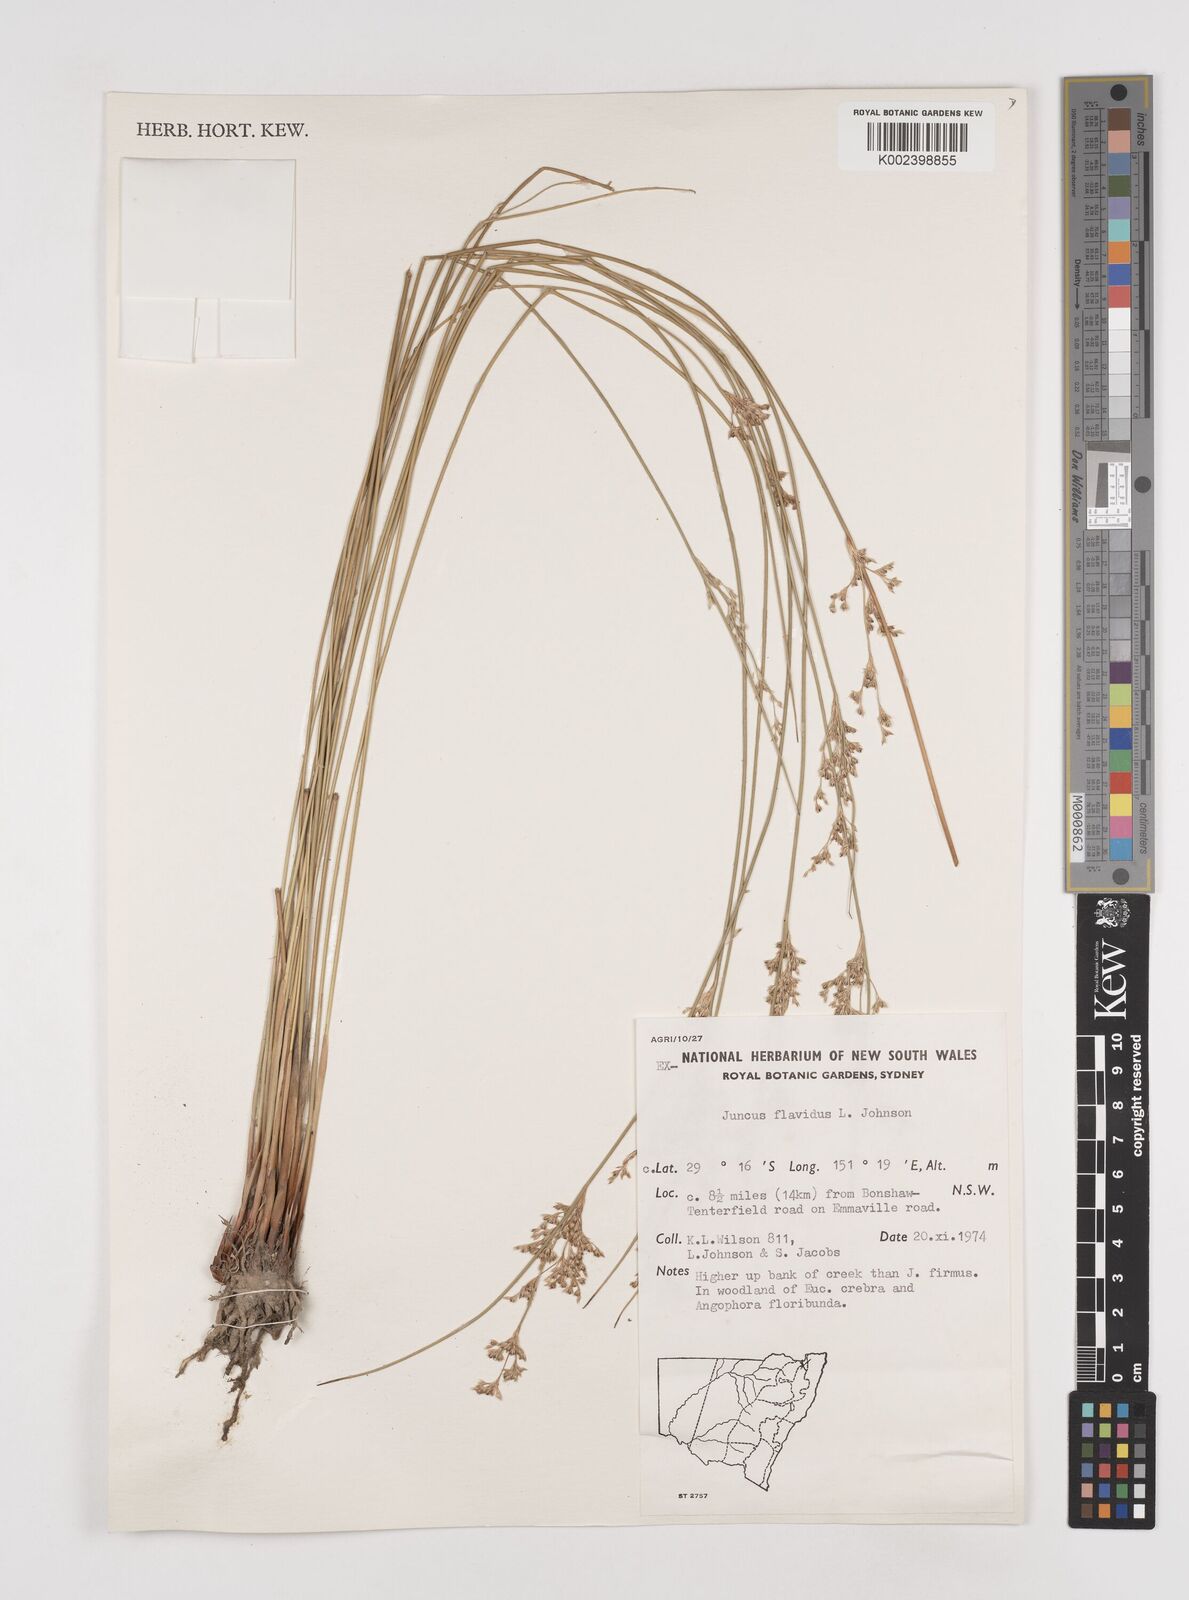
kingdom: Plantae
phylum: Tracheophyta
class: Liliopsida
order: Poales
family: Juncaceae
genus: Juncus
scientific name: Juncus flavidus
